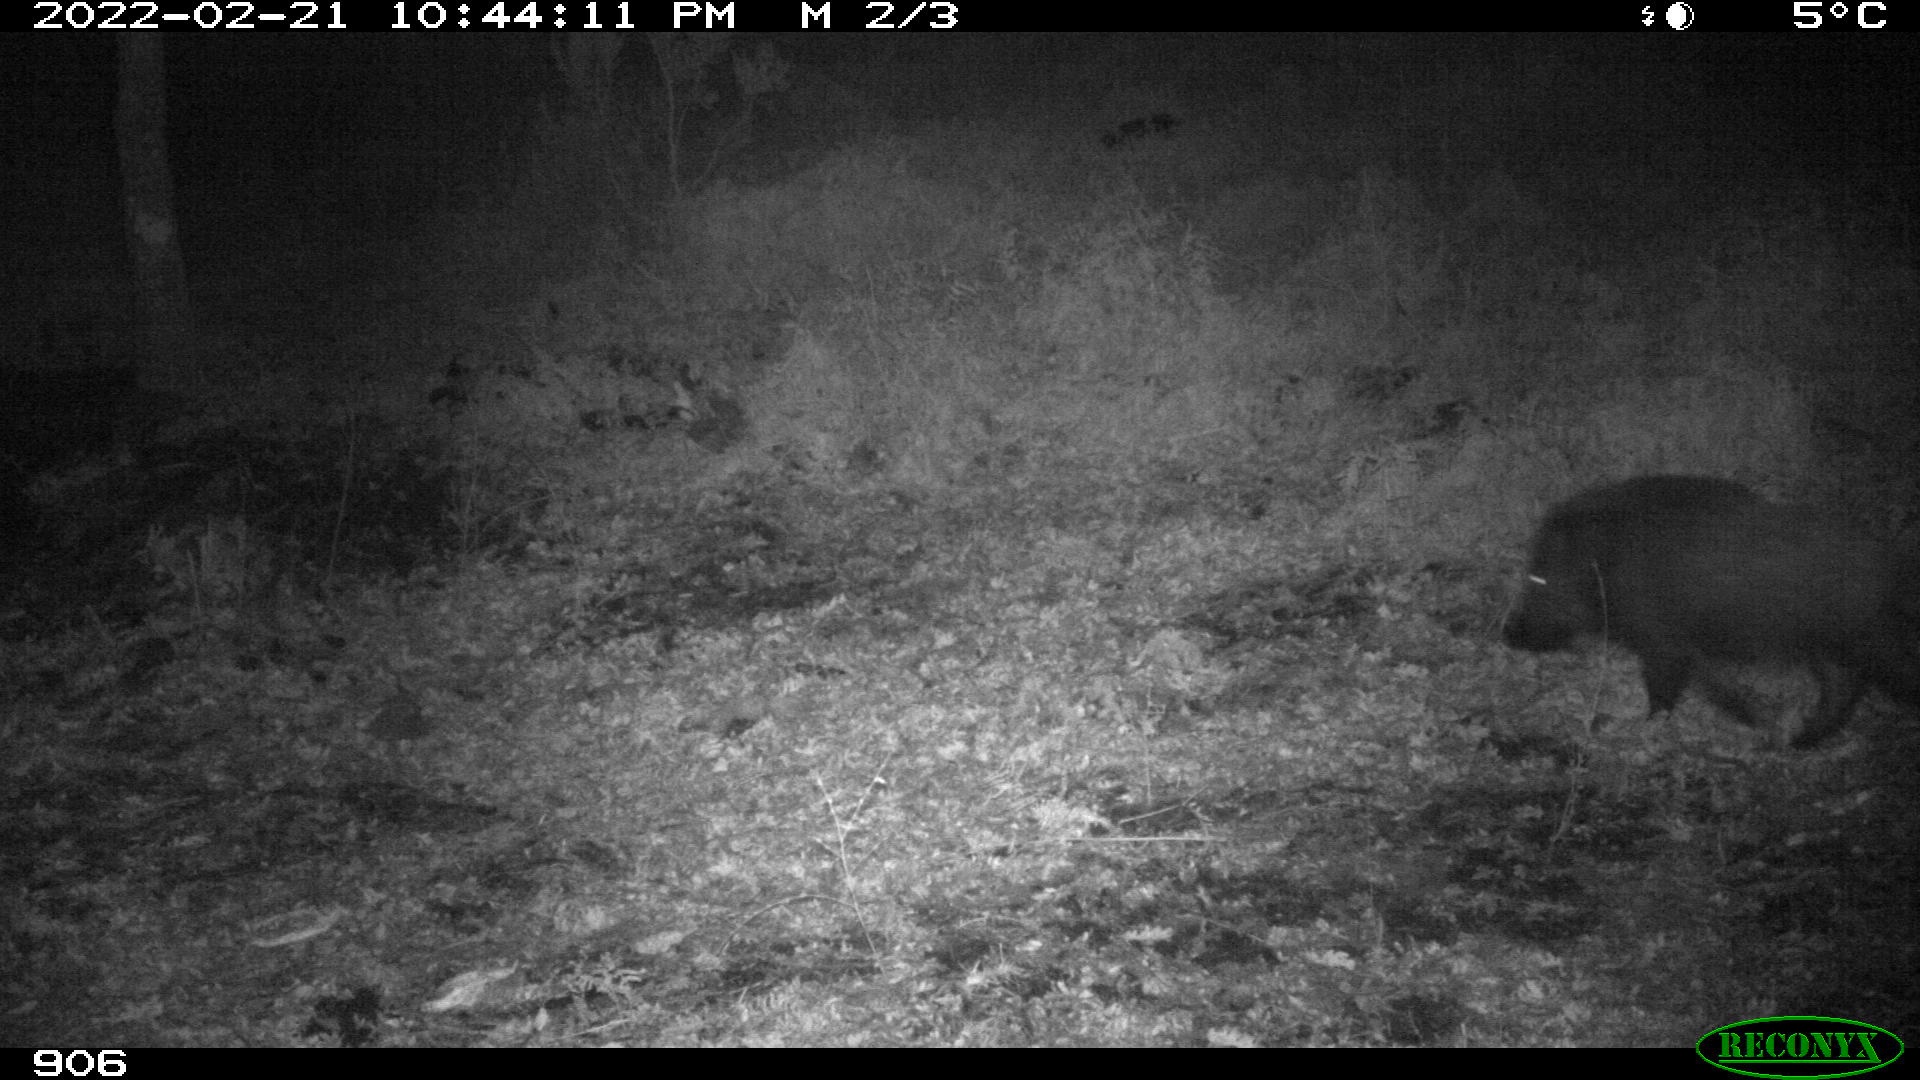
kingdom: Animalia
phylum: Chordata
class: Mammalia
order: Artiodactyla
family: Suidae
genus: Sus
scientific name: Sus scrofa
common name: Wild boar
